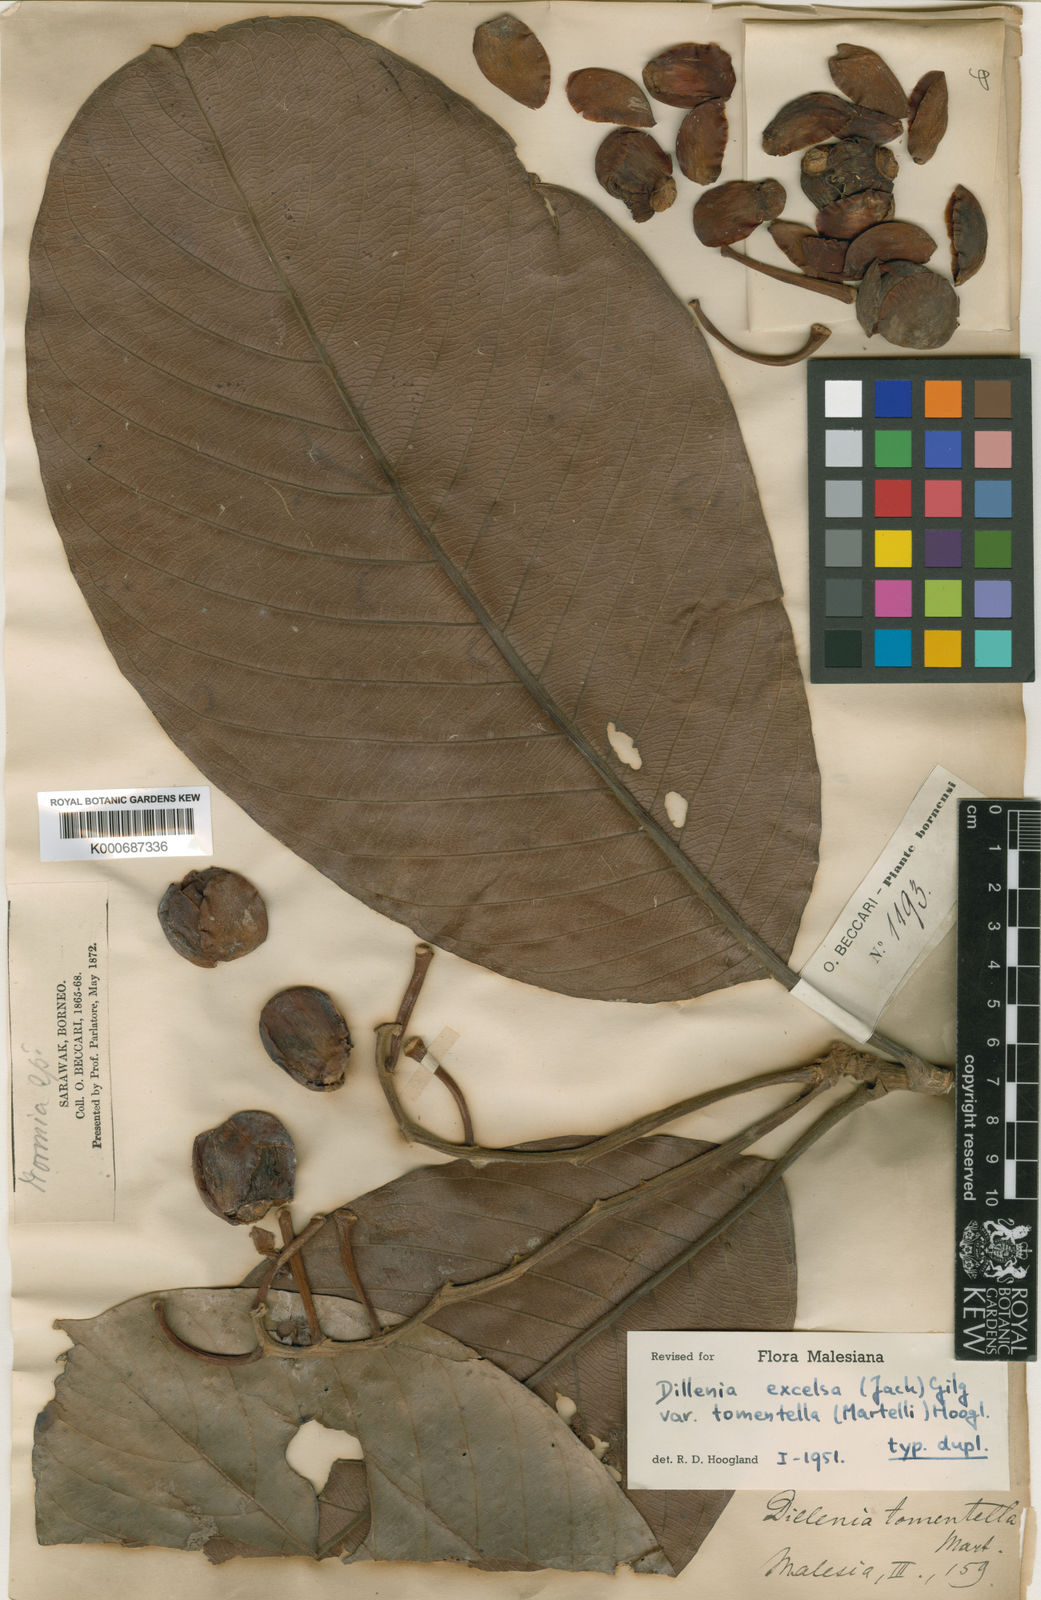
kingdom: Plantae
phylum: Tracheophyta
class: Magnoliopsida
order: Dilleniales
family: Dilleniaceae
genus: Dillenia
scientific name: Dillenia
